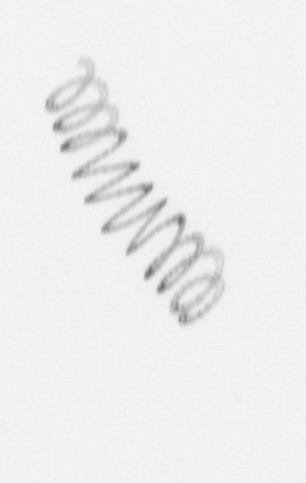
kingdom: Chromista
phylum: Ochrophyta
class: Bacillariophyceae
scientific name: Bacillariophyceae
